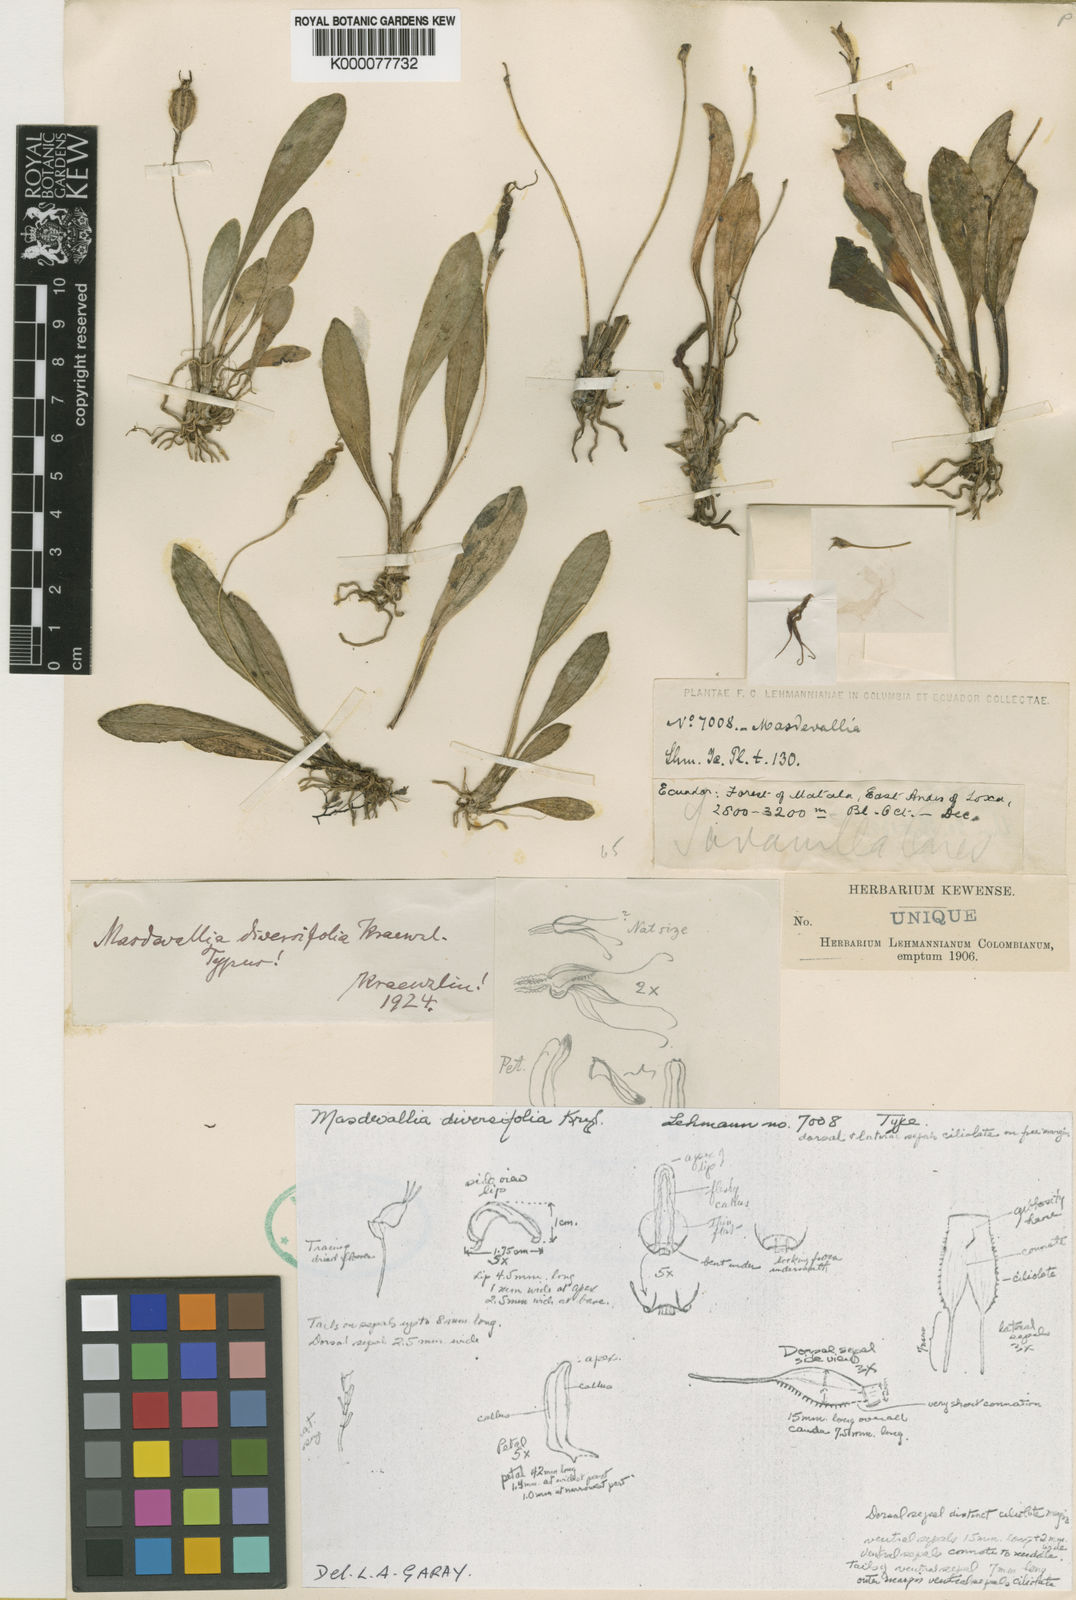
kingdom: Plantae
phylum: Tracheophyta
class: Liliopsida
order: Asparagales
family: Orchidaceae
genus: Masdevallia
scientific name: Masdevallia
